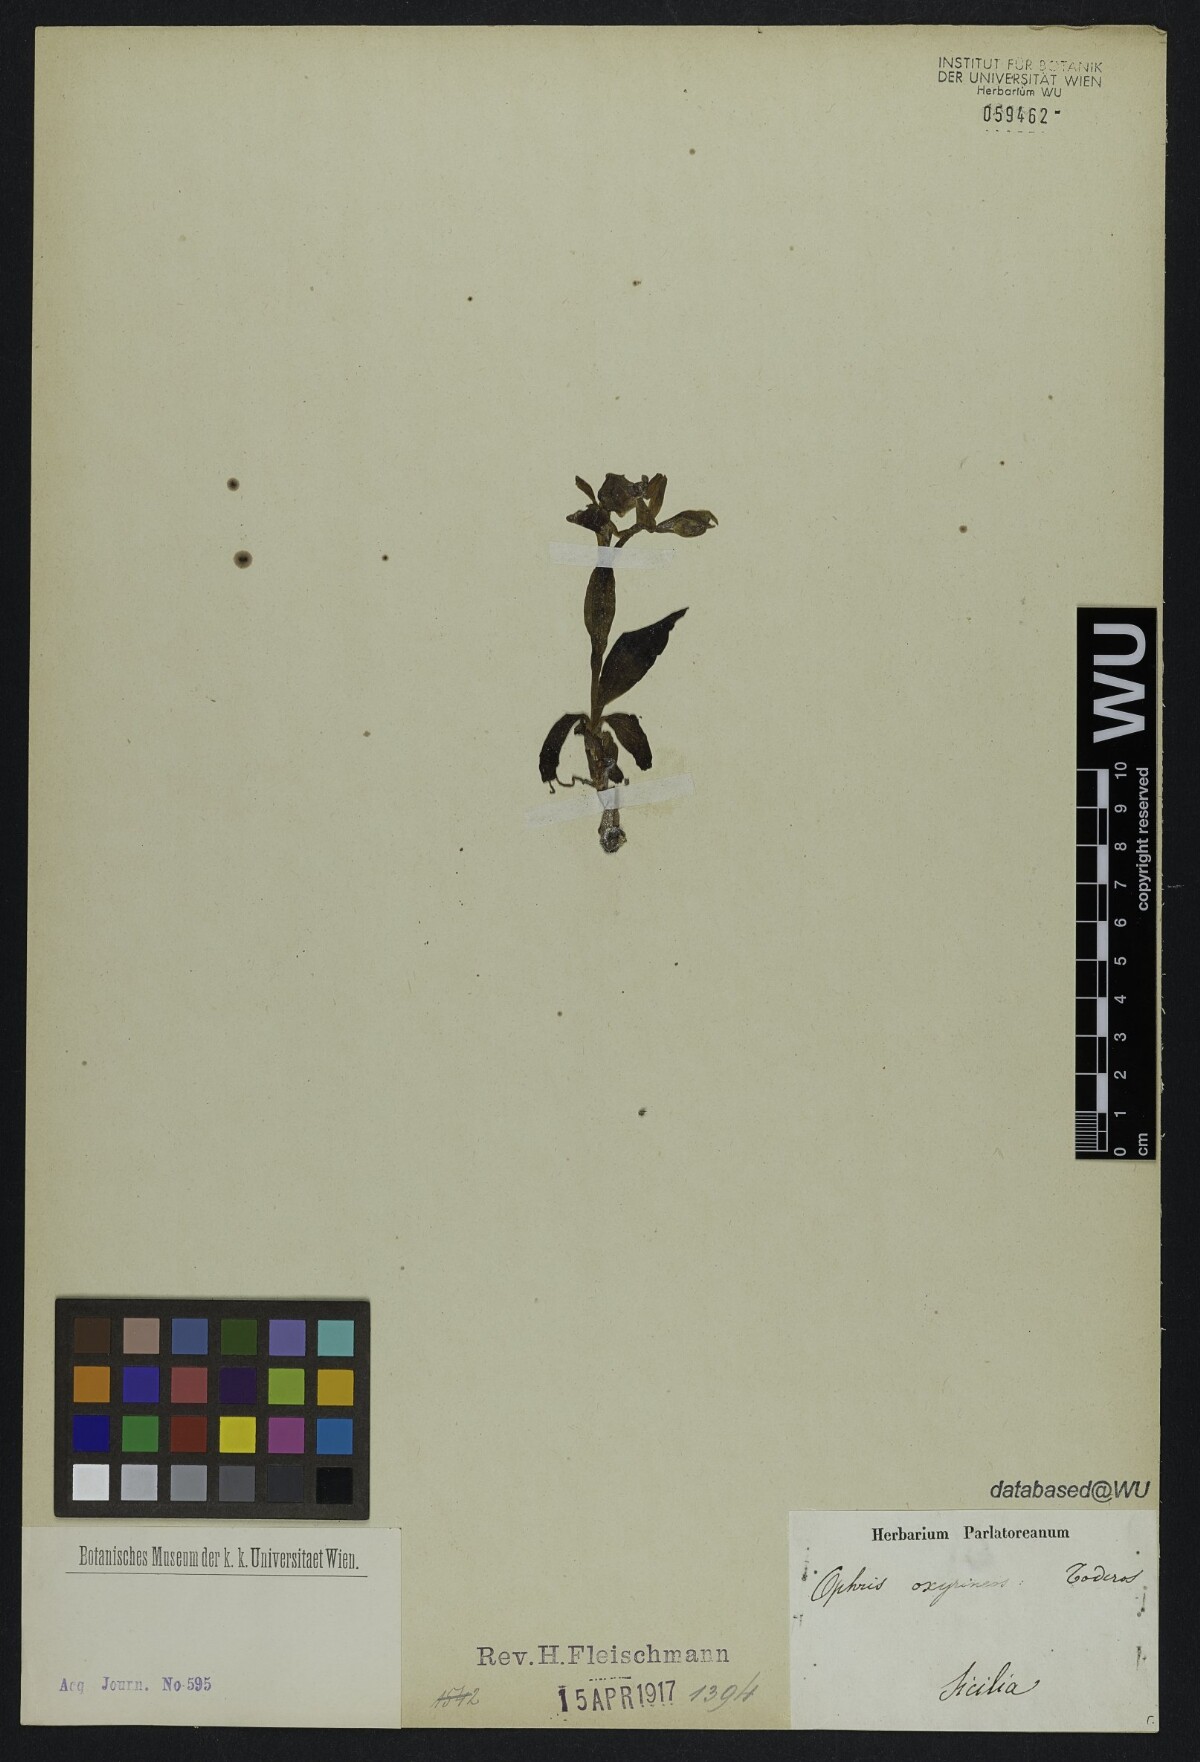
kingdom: Plantae
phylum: Tracheophyta
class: Liliopsida
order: Asparagales
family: Orchidaceae
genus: Ophrys
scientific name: Ophrys holosericea
